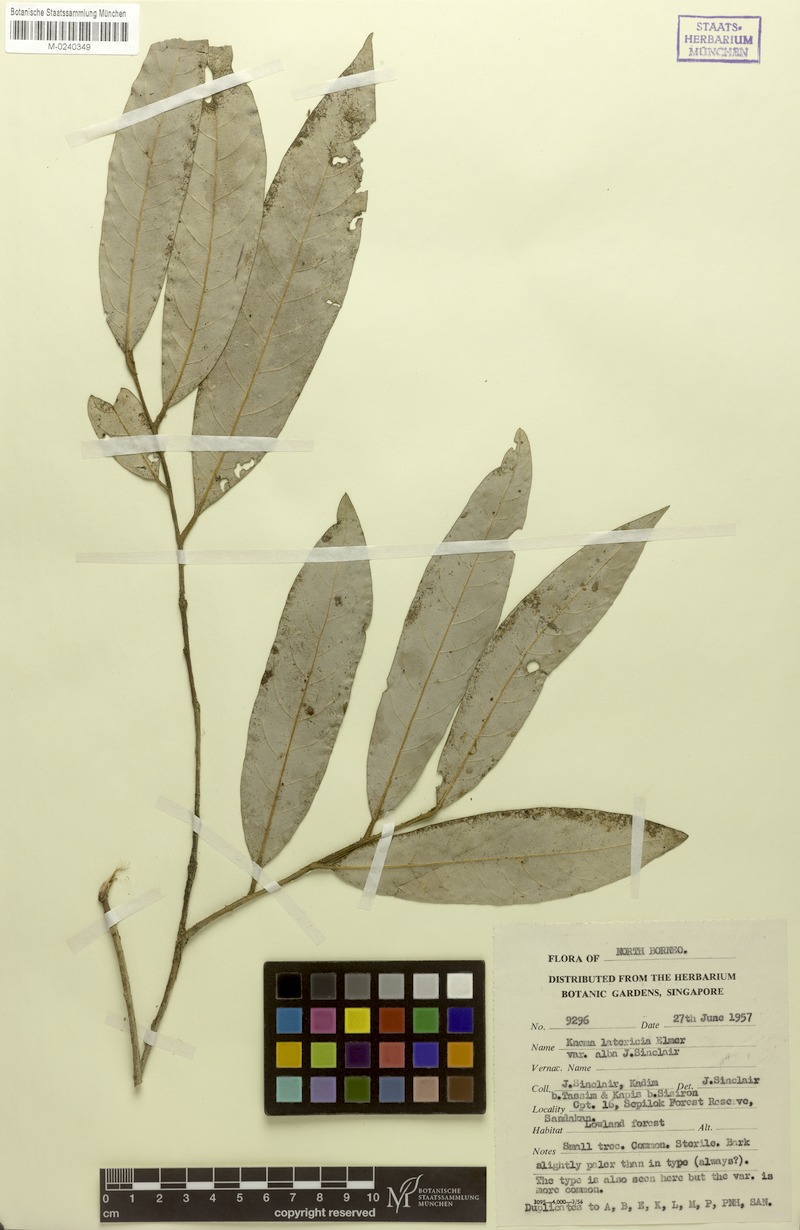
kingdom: Plantae
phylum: Tracheophyta
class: Magnoliopsida
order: Magnoliales
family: Myristicaceae
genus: Knema
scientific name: Knema latericia
